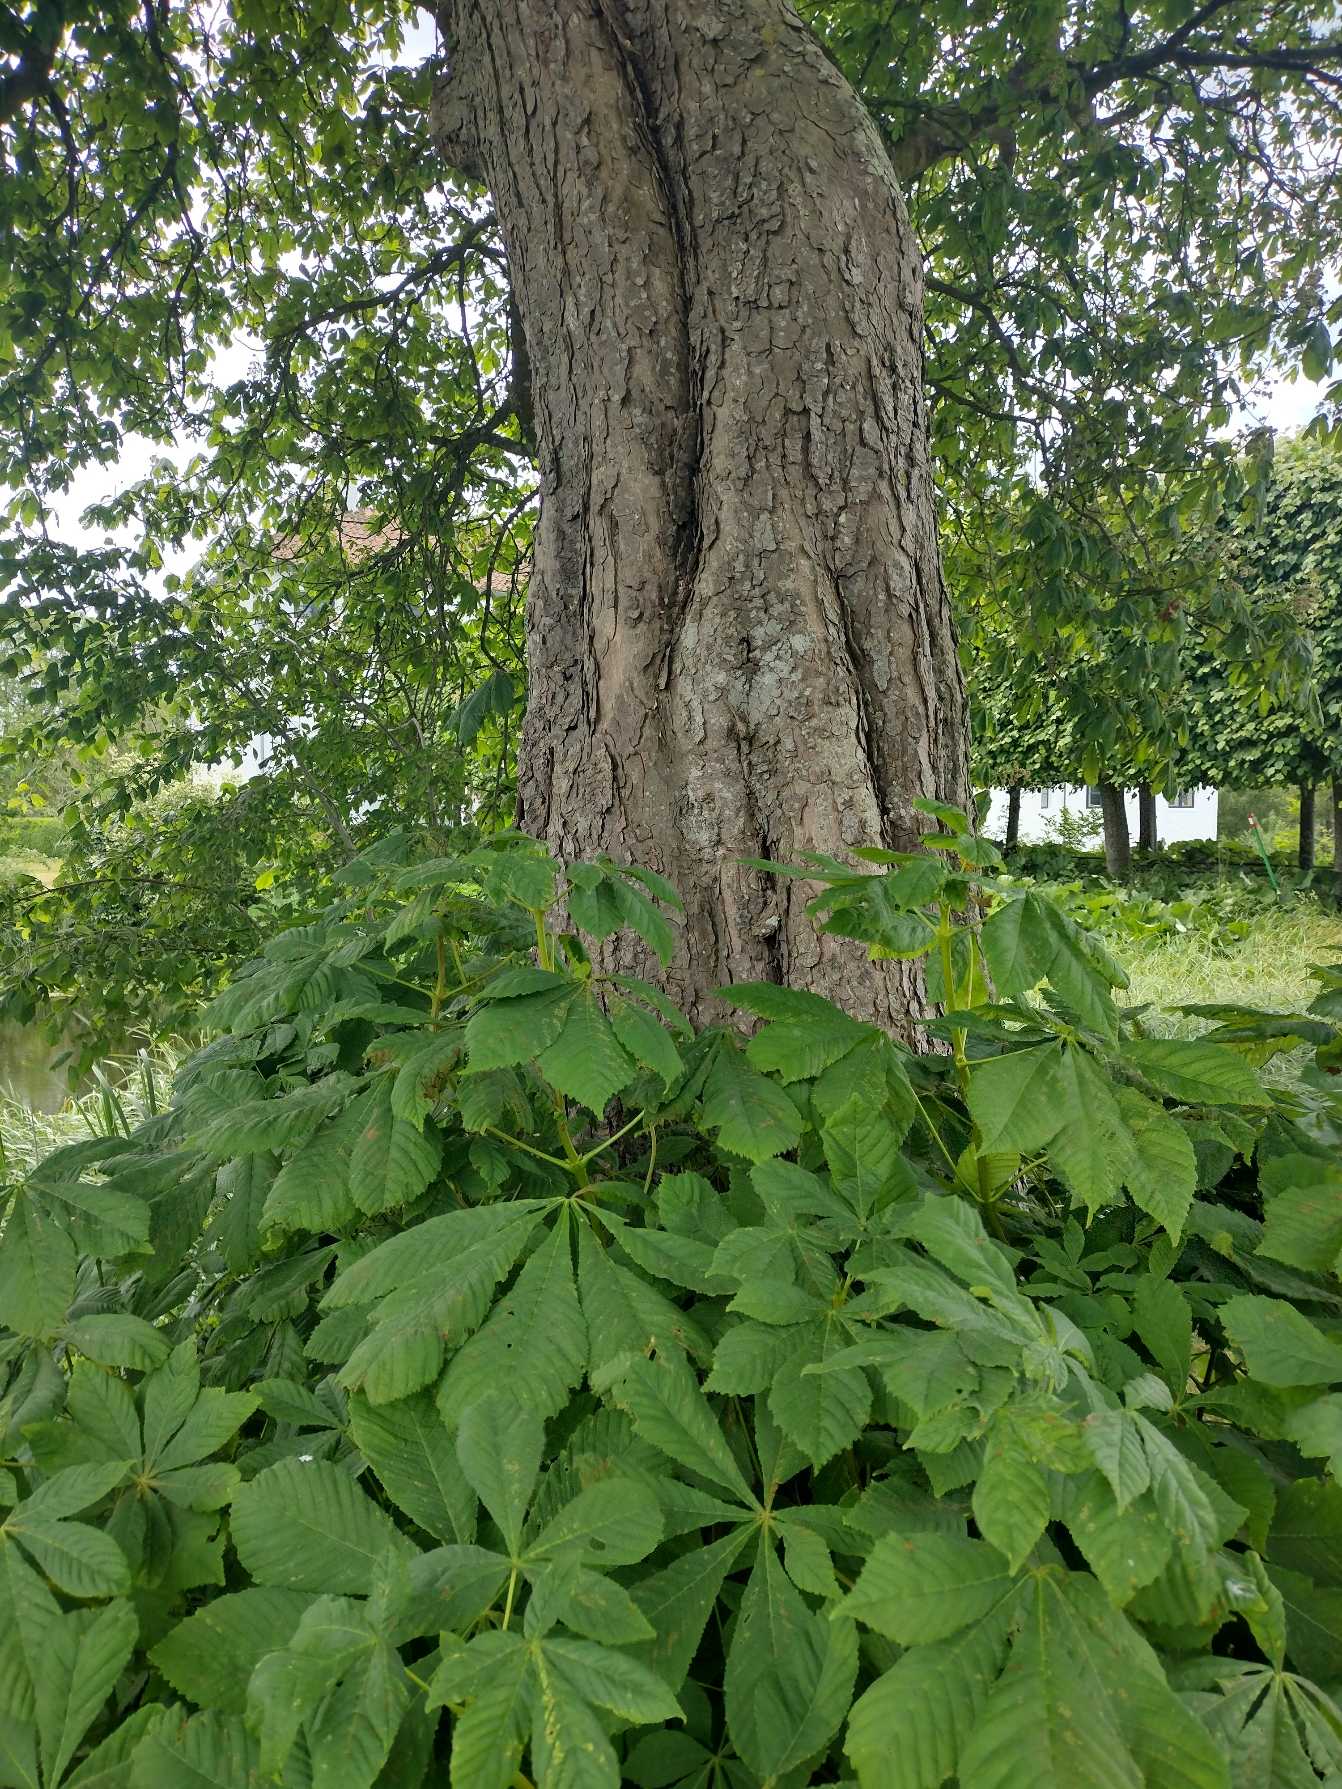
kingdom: Plantae
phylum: Tracheophyta
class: Magnoliopsida
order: Sapindales
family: Sapindaceae
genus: Aesculus
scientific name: Aesculus hippocastanum
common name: Hestekastanie
